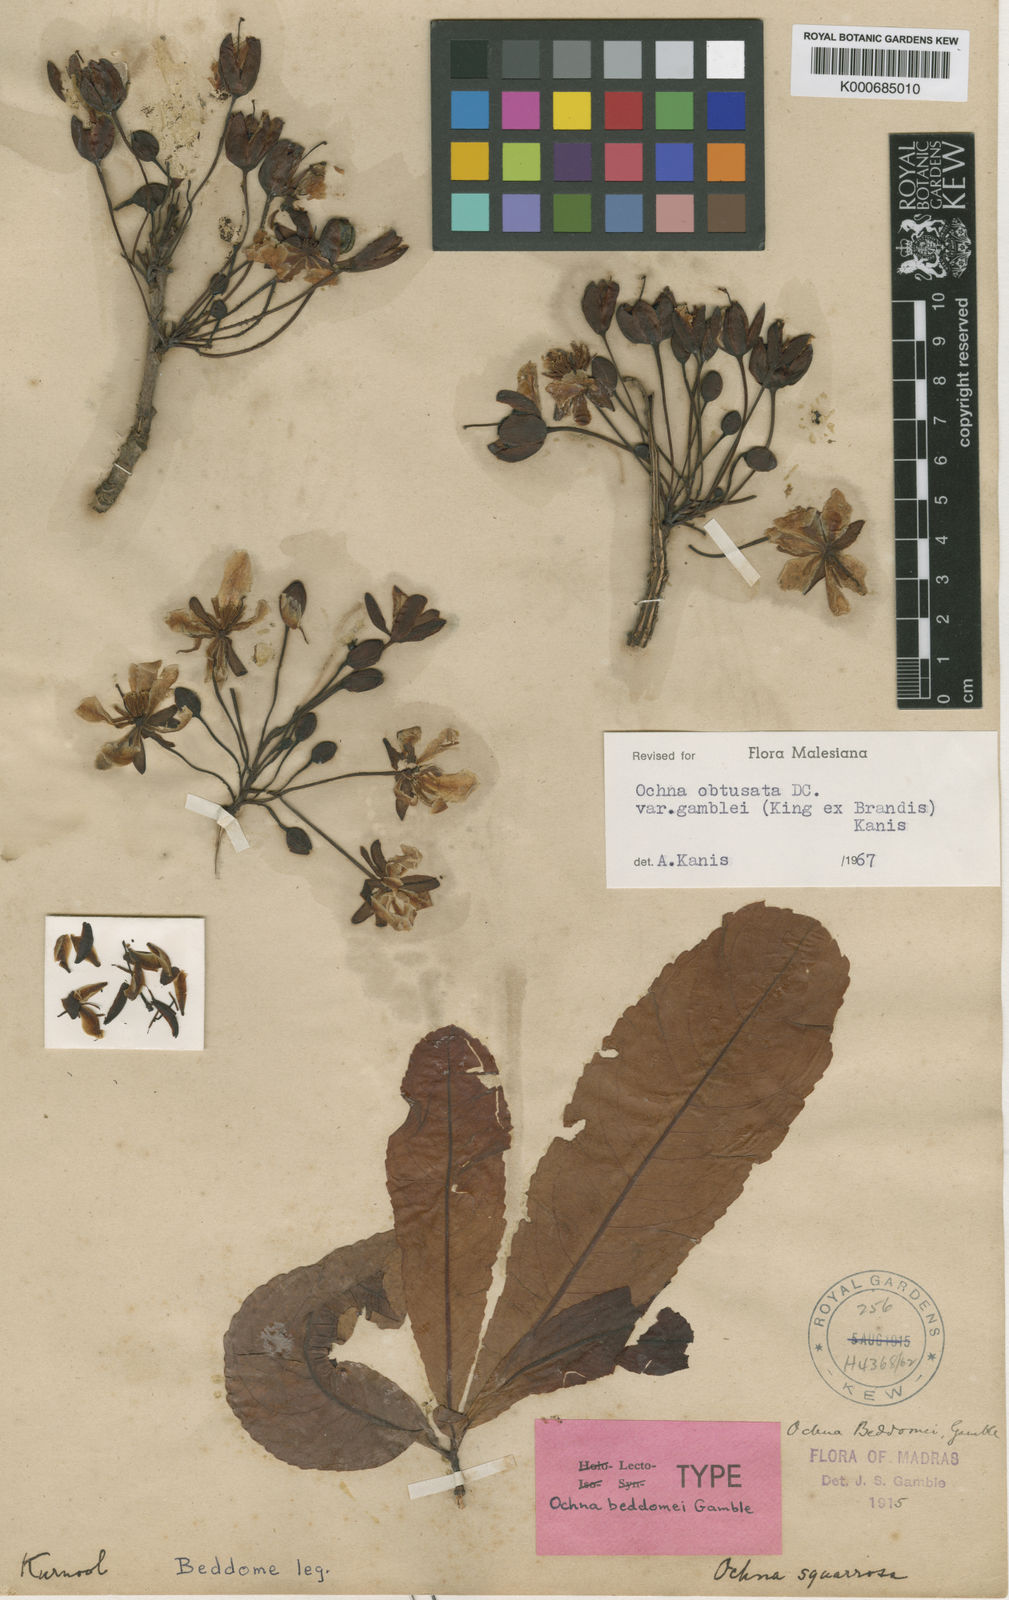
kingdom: Plantae
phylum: Tracheophyta
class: Magnoliopsida
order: Malpighiales
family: Ochnaceae
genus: Ochna
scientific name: Ochna gamblei
